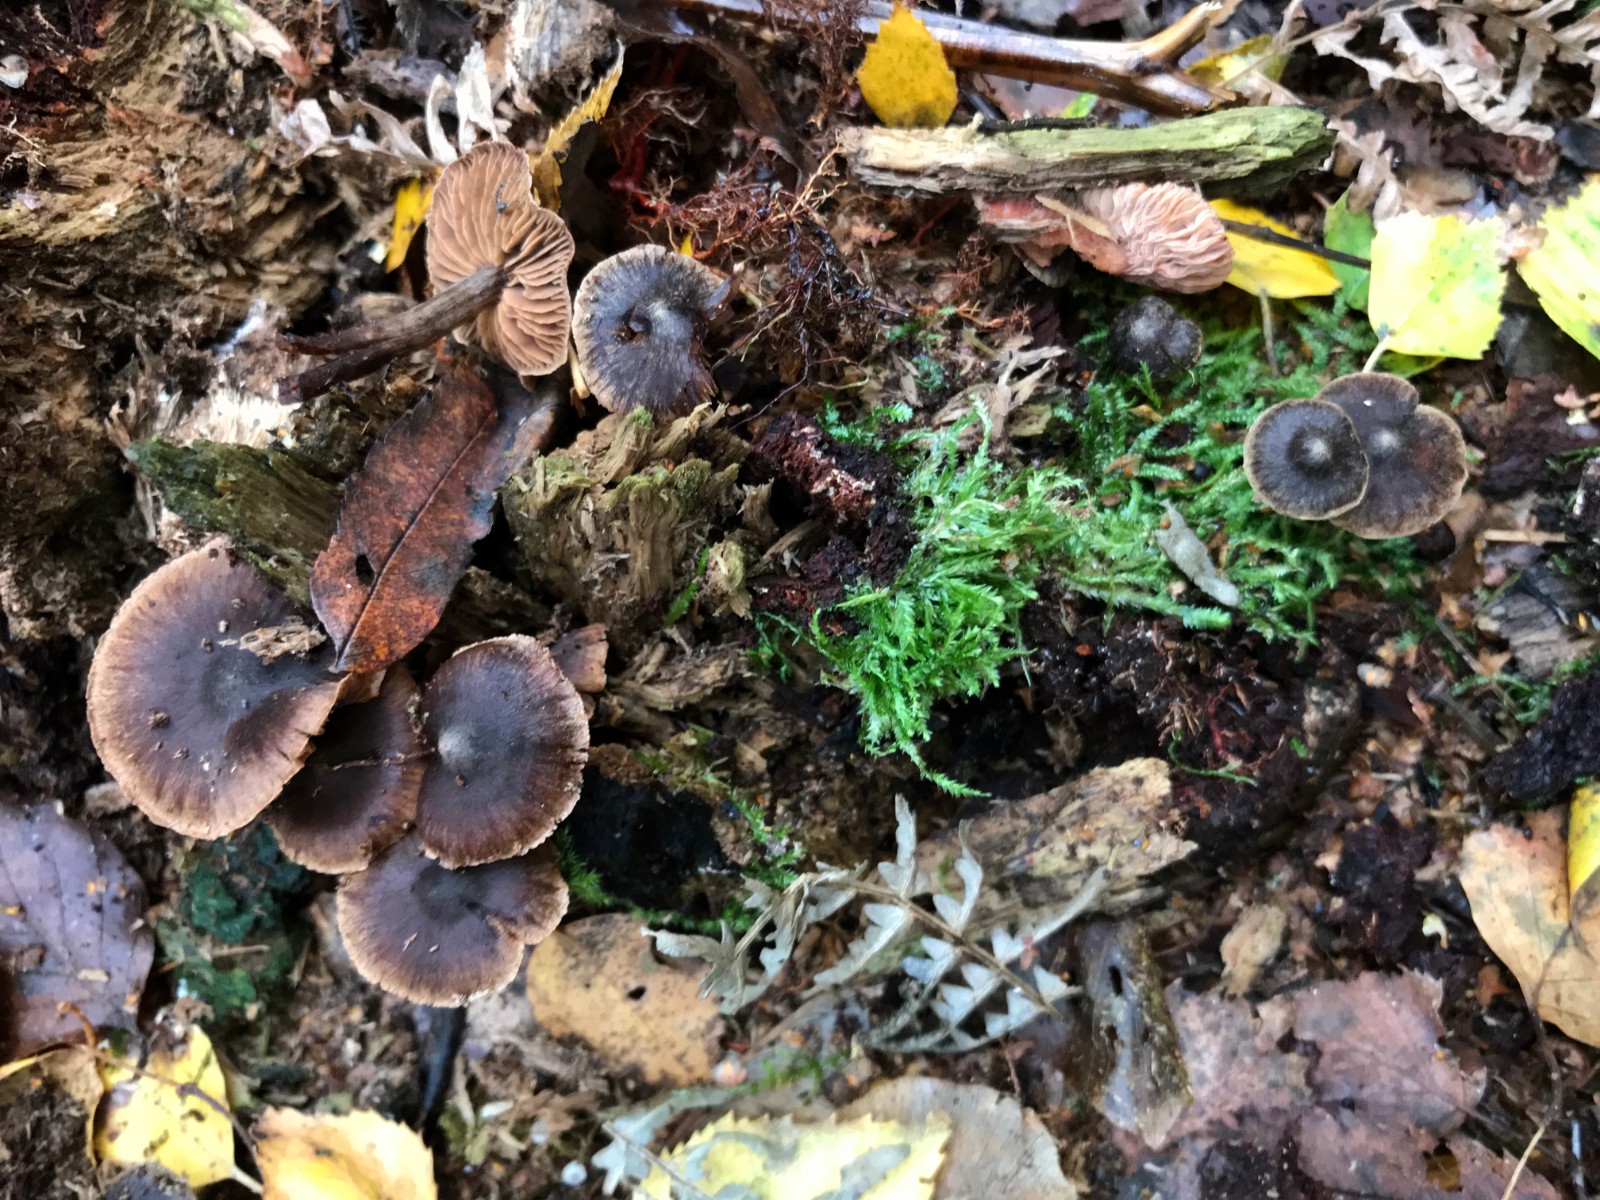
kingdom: Fungi
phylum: Basidiomycota
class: Agaricomycetes
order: Agaricales
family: Cortinariaceae
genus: Cortinarius
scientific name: Cortinarius umbrinolens
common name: mørk slørhat
